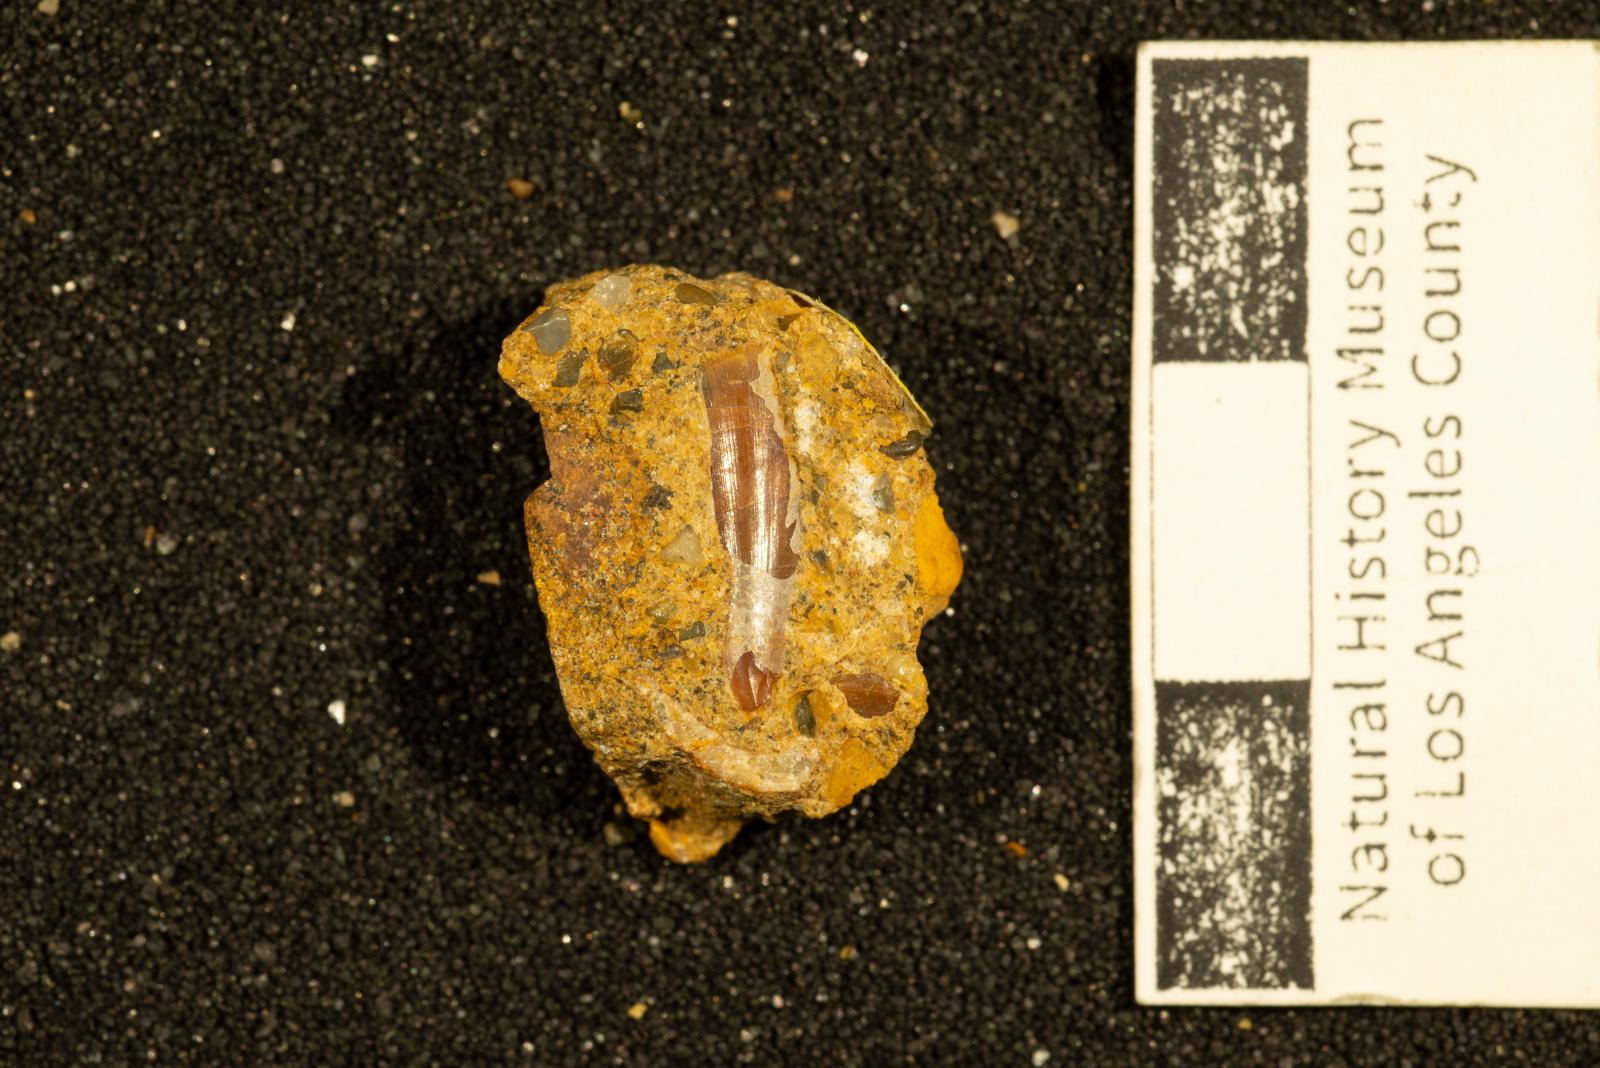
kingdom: Animalia
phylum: Mollusca
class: Scaphopoda
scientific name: Scaphopoda
